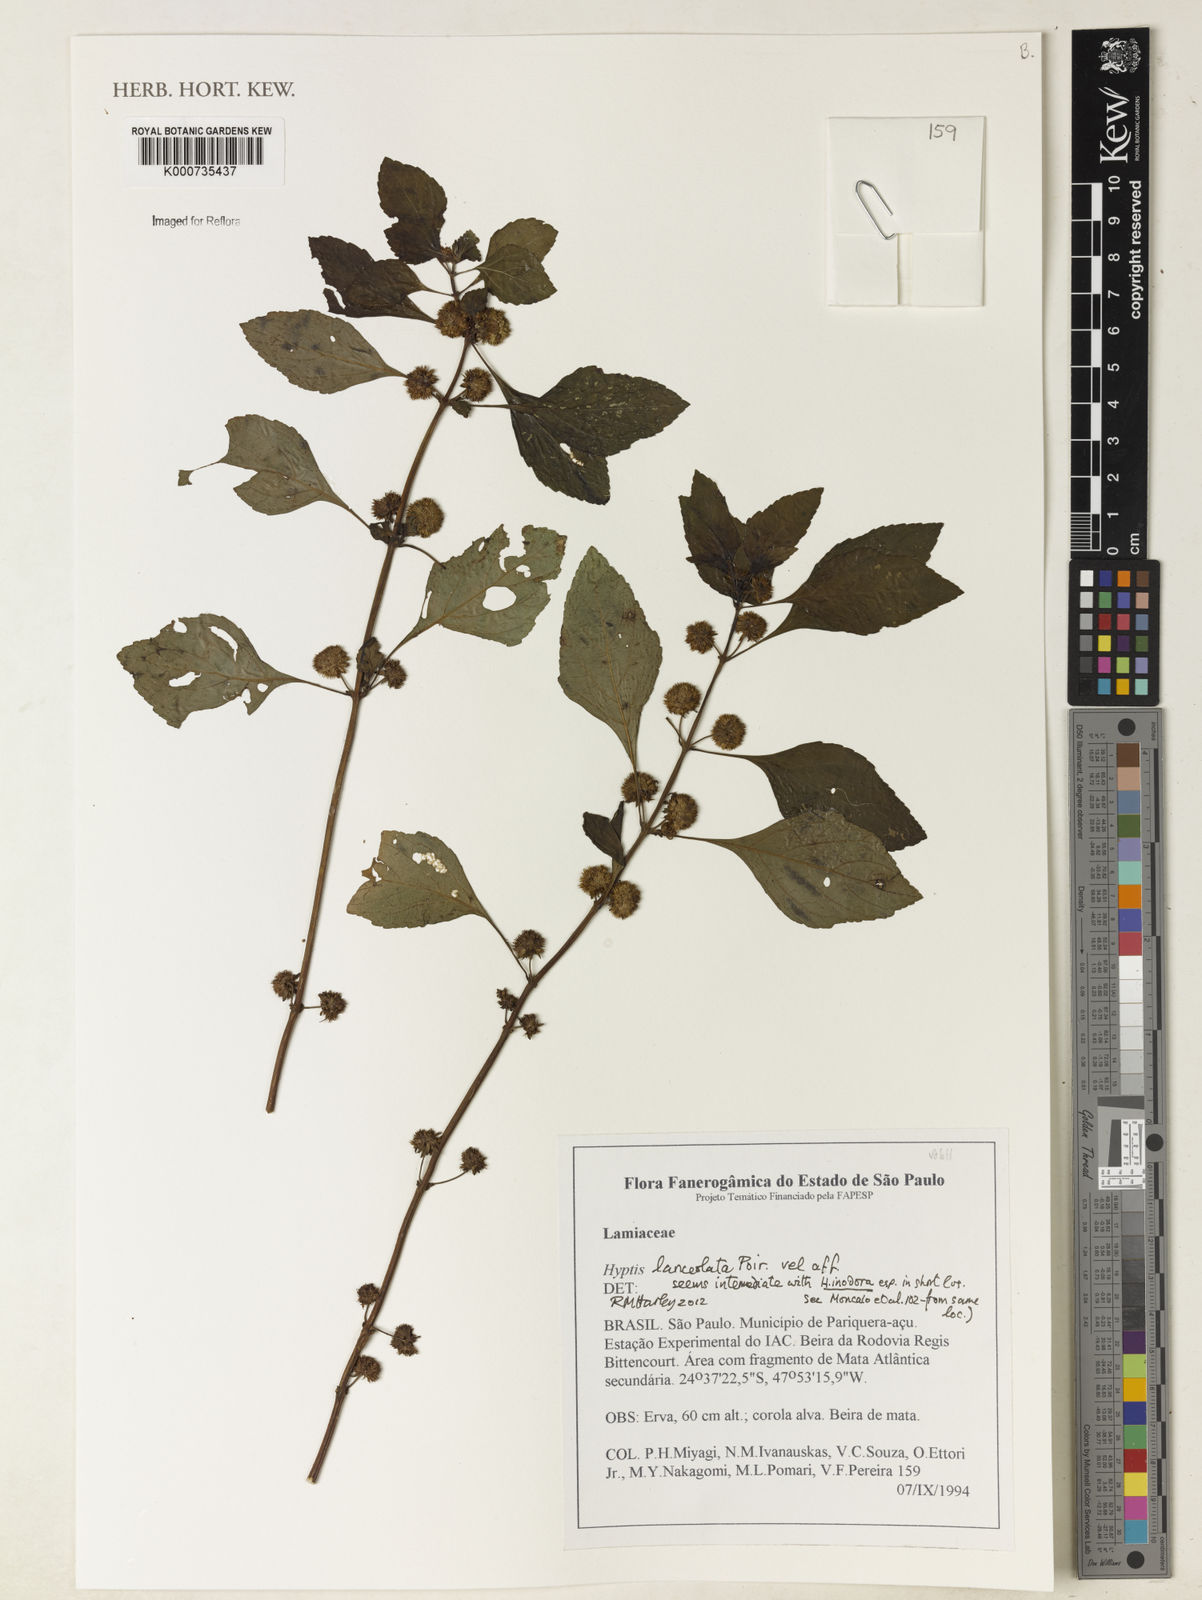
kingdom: Plantae
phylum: Tracheophyta
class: Magnoliopsida
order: Lamiales
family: Lamiaceae
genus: Hyptis
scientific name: Hyptis lanceolata
